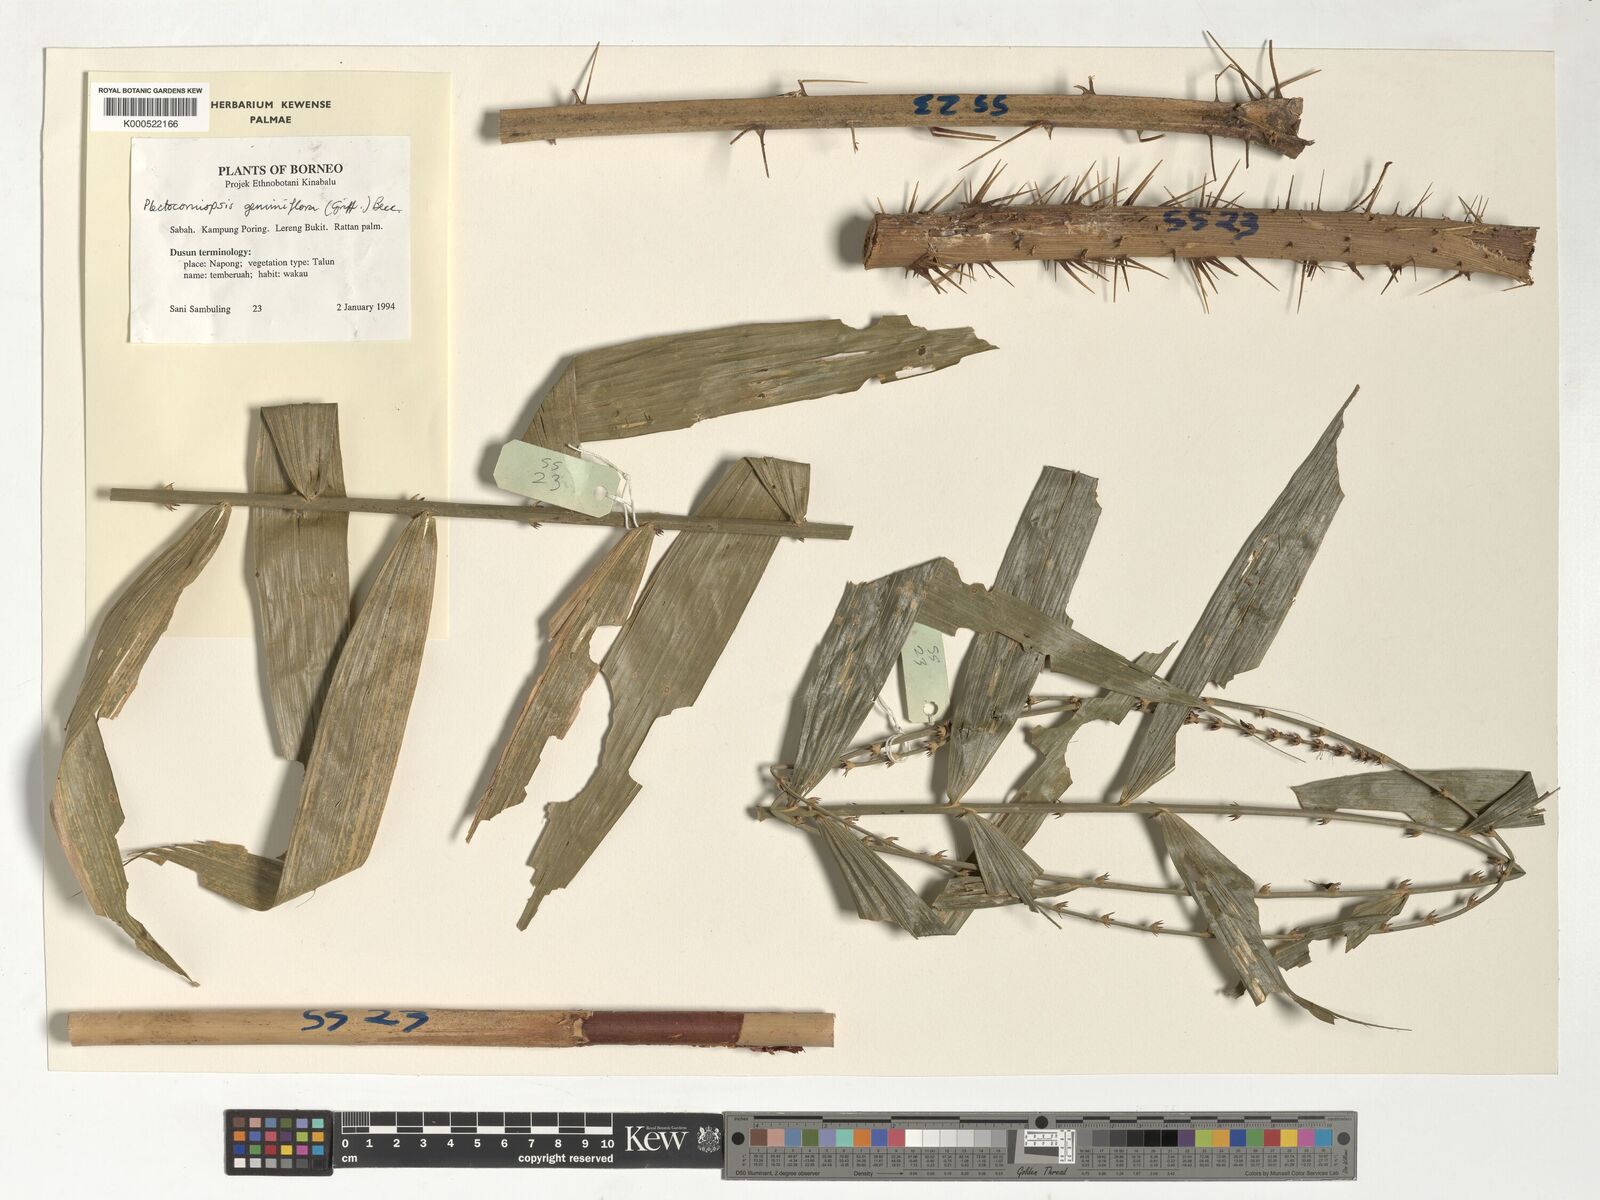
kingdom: Plantae
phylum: Tracheophyta
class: Liliopsida
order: Arecales
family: Arecaceae
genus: Plectocomiopsis
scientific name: Plectocomiopsis geminiflora
